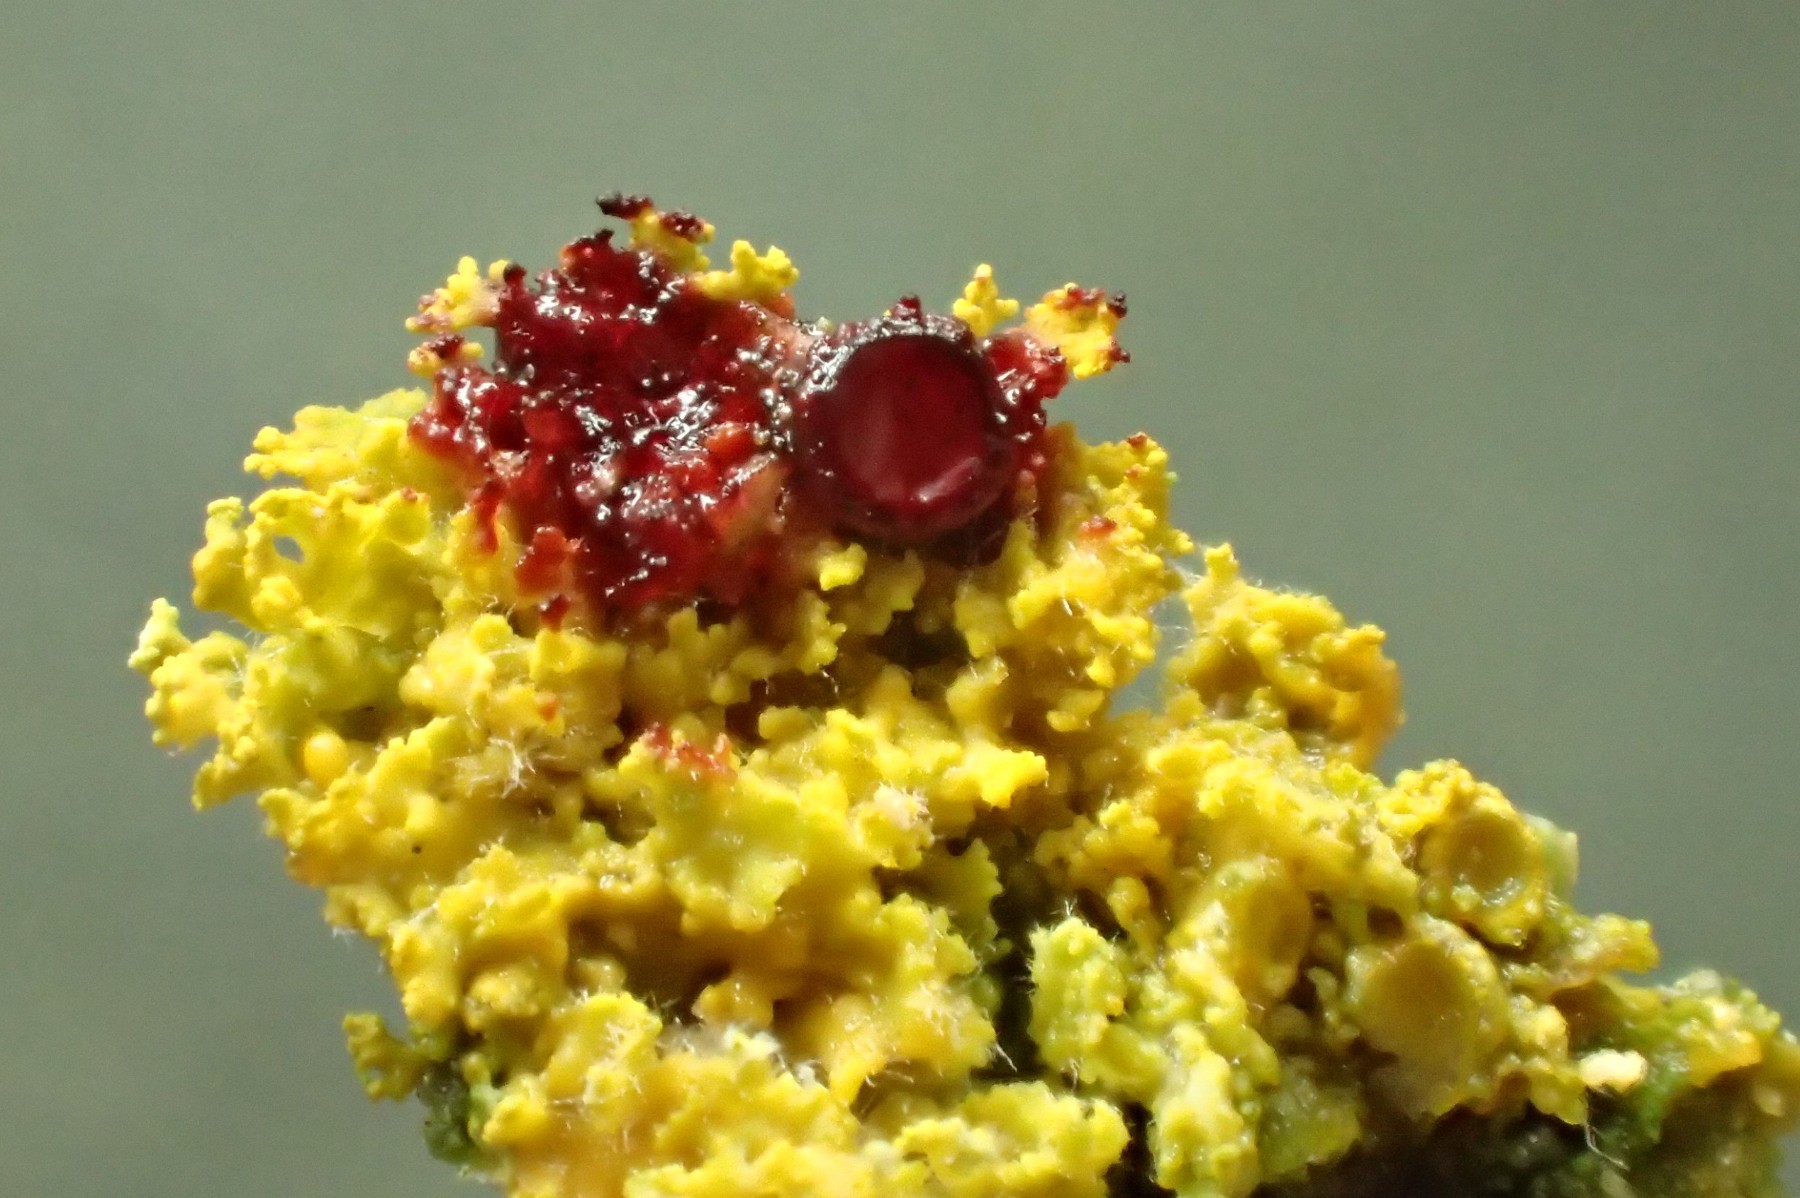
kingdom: Fungi
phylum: Ascomycota
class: Lecanoromycetes
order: Teloschistales
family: Teloschistaceae
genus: Polycauliona
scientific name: Polycauliona candelaria
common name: tue-orangelav
